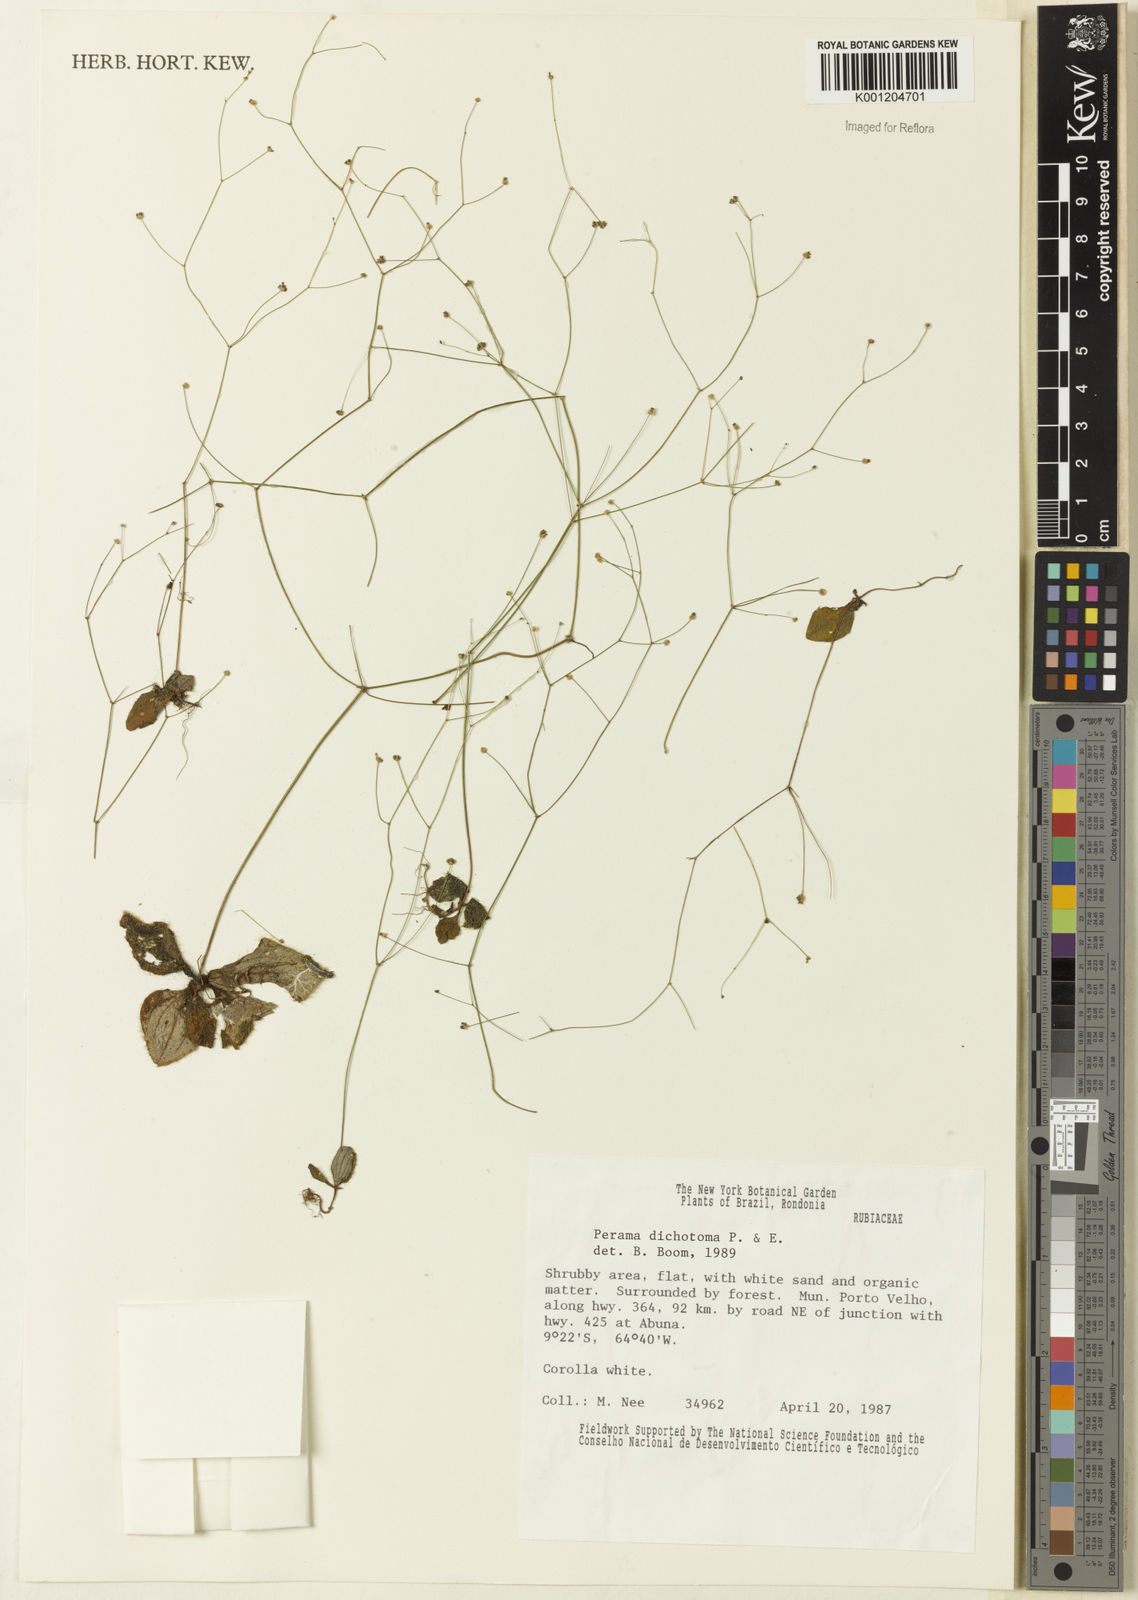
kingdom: Plantae
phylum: Tracheophyta
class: Magnoliopsida
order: Gentianales
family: Rubiaceae
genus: Perama
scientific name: Perama dichotoma
